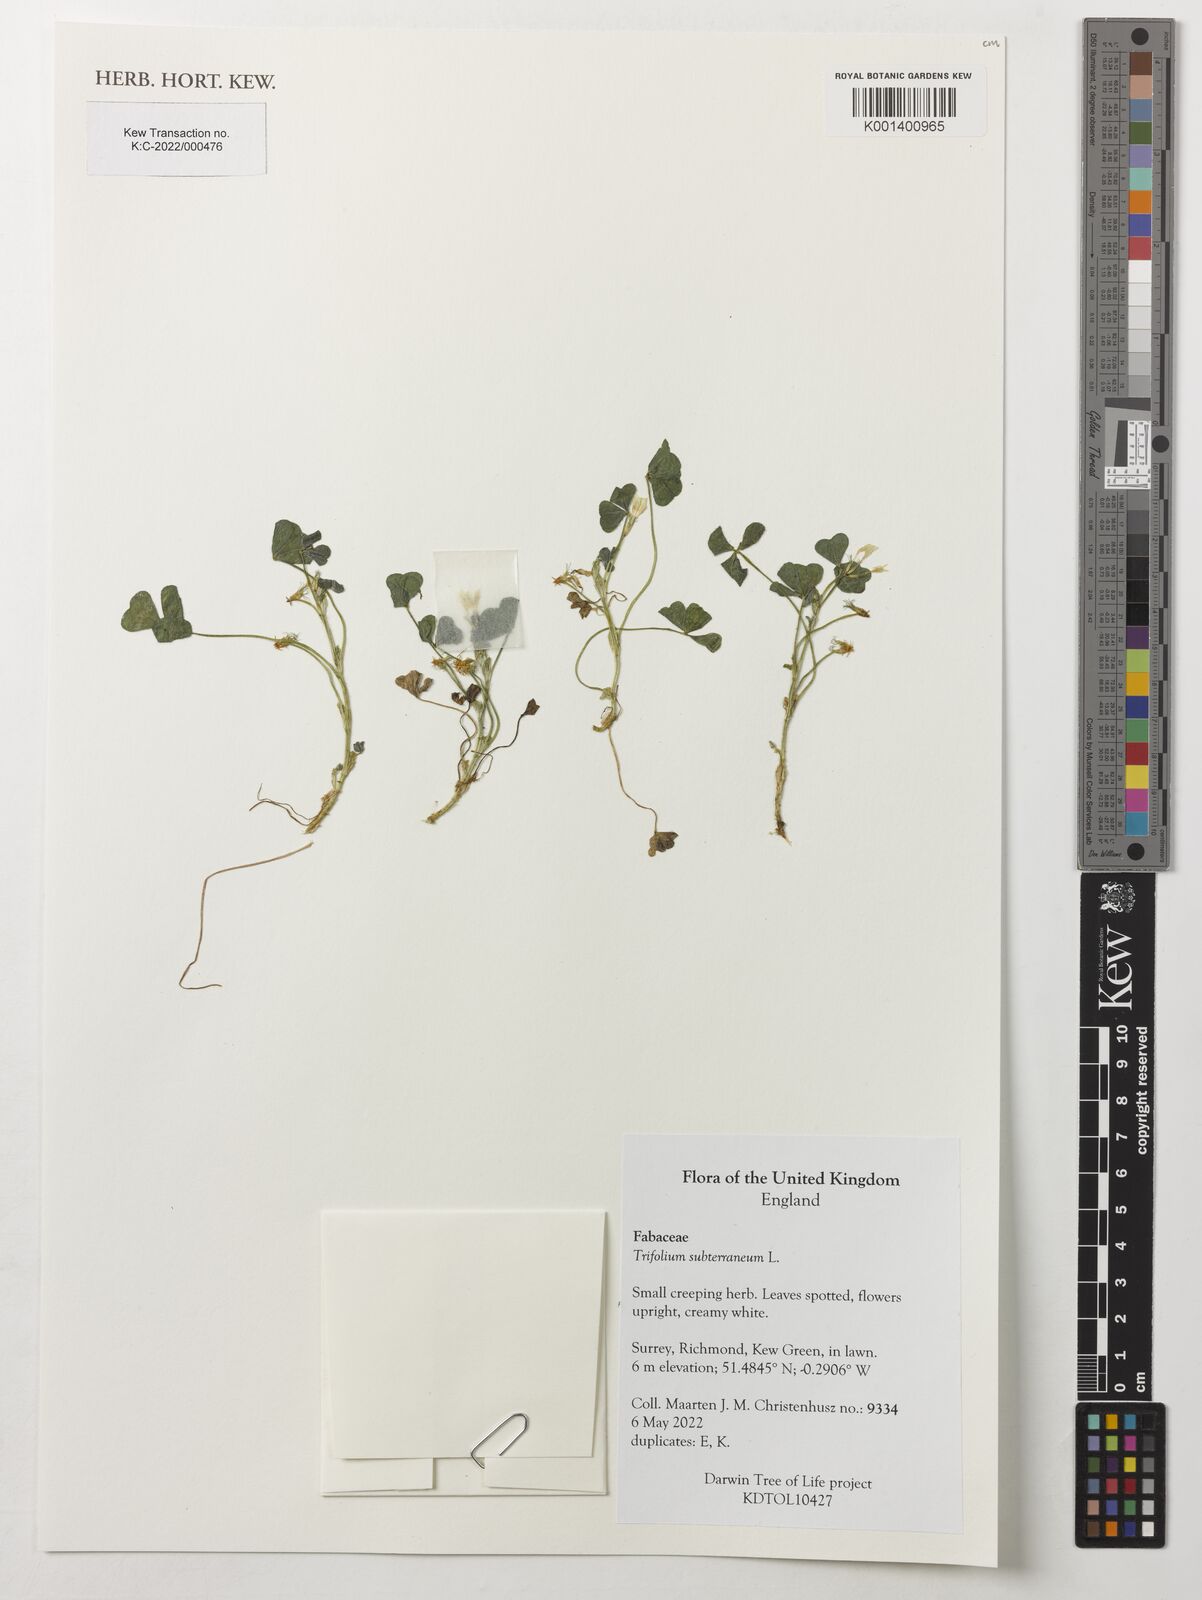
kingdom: Plantae
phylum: Tracheophyta
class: Magnoliopsida
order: Fabales
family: Fabaceae
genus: Trifolium
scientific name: Trifolium subterraneum
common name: Subterranean clover
